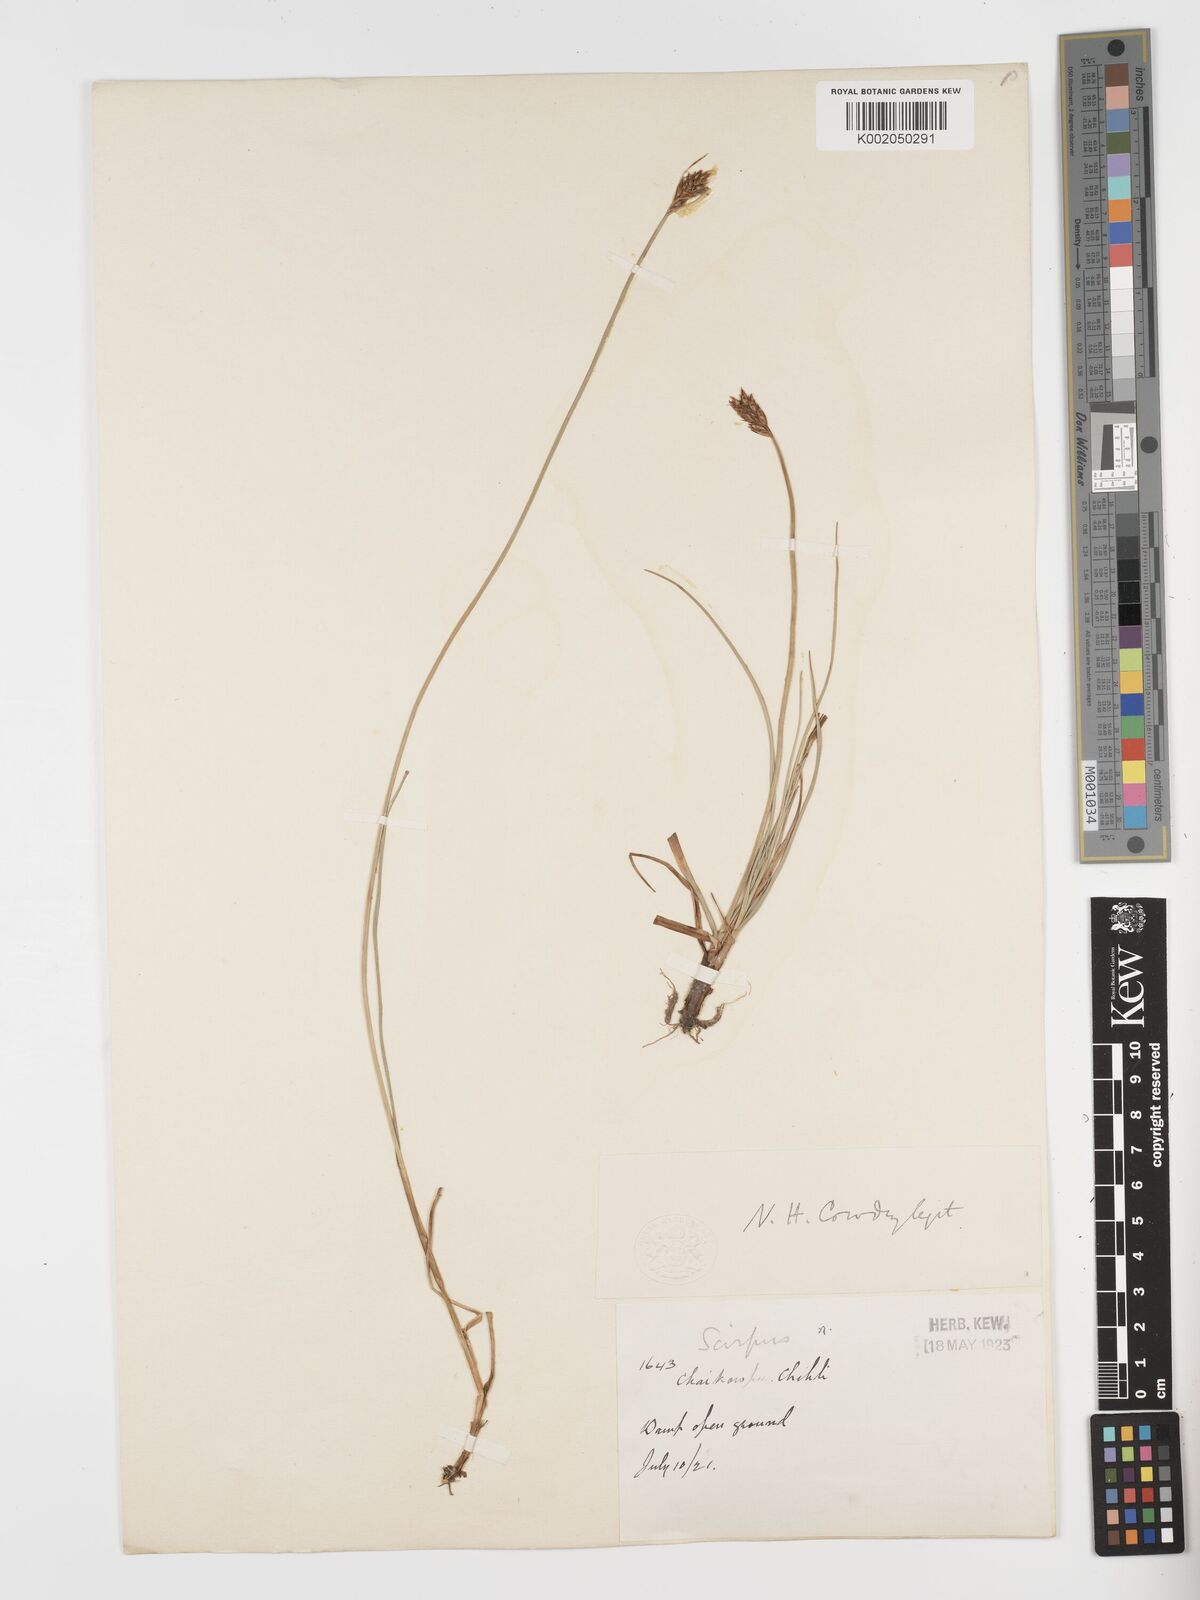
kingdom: Plantae
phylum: Tracheophyta
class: Liliopsida
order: Poales
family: Cyperaceae
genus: Blysmus
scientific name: Blysmus compressus
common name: Flat-sedge
